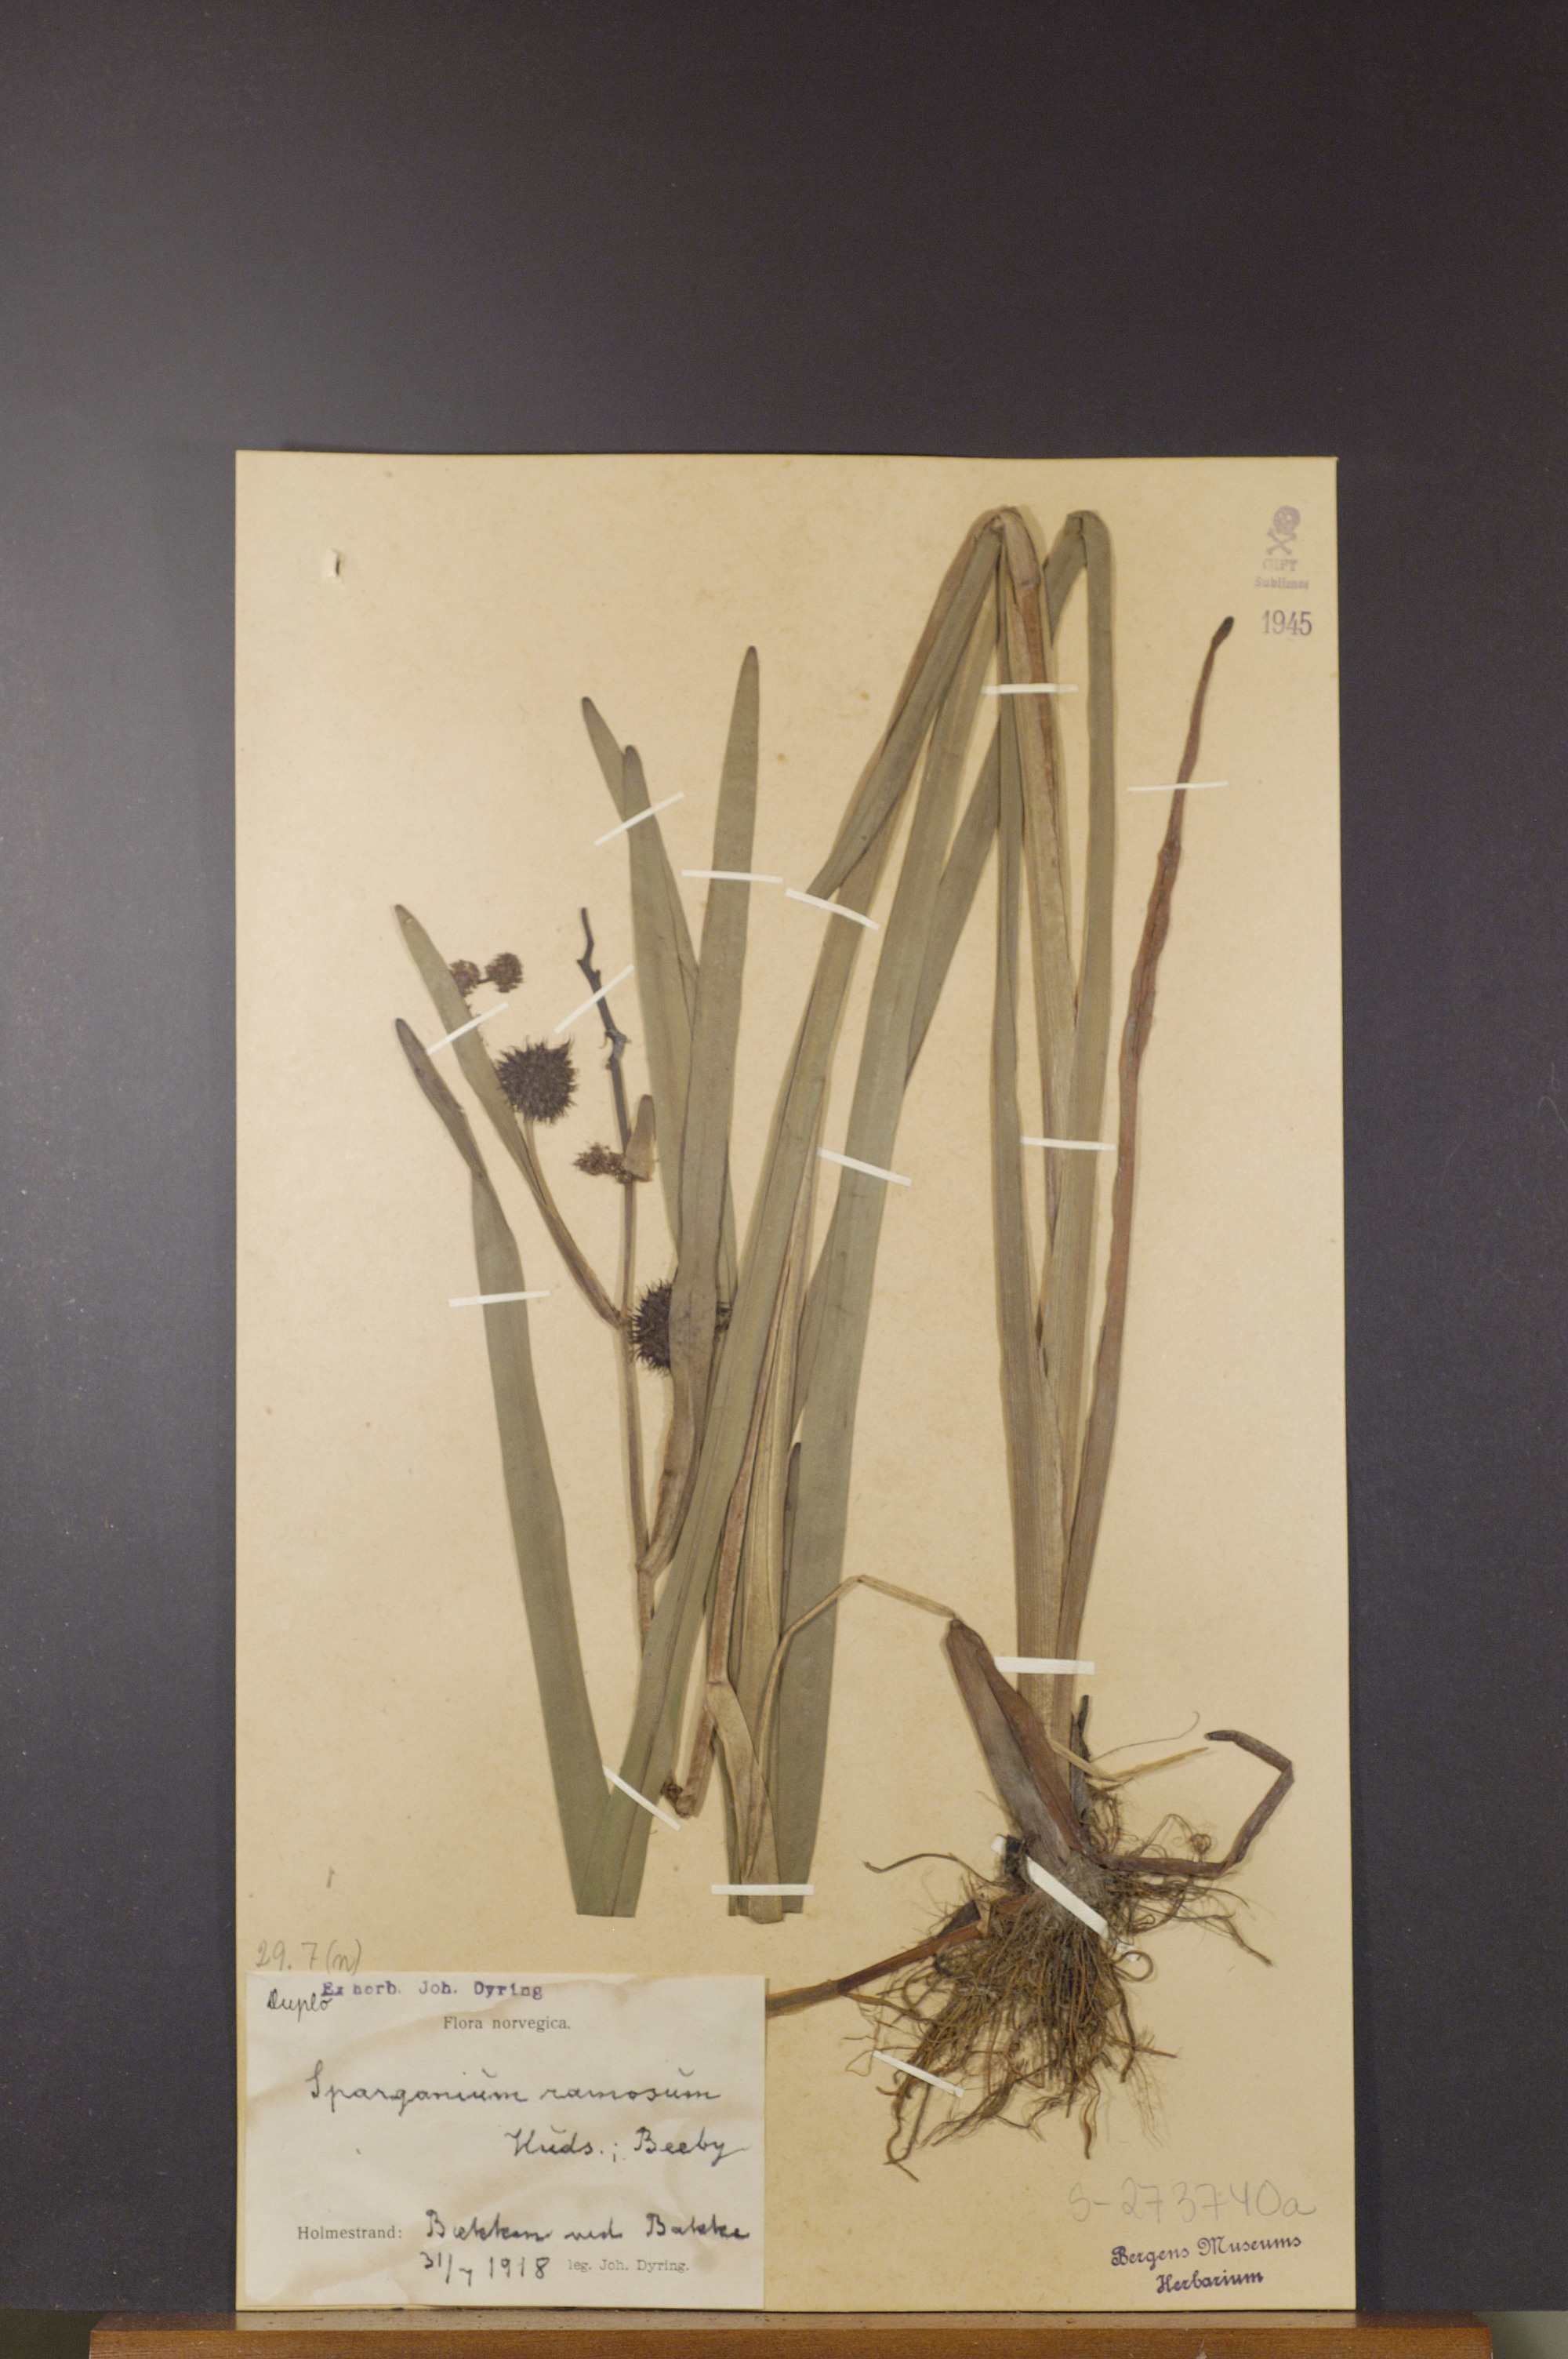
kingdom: Plantae
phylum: Tracheophyta
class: Liliopsida
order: Poales
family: Typhaceae
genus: Sparganium
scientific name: Sparganium erectum
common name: Branched bur-reed
